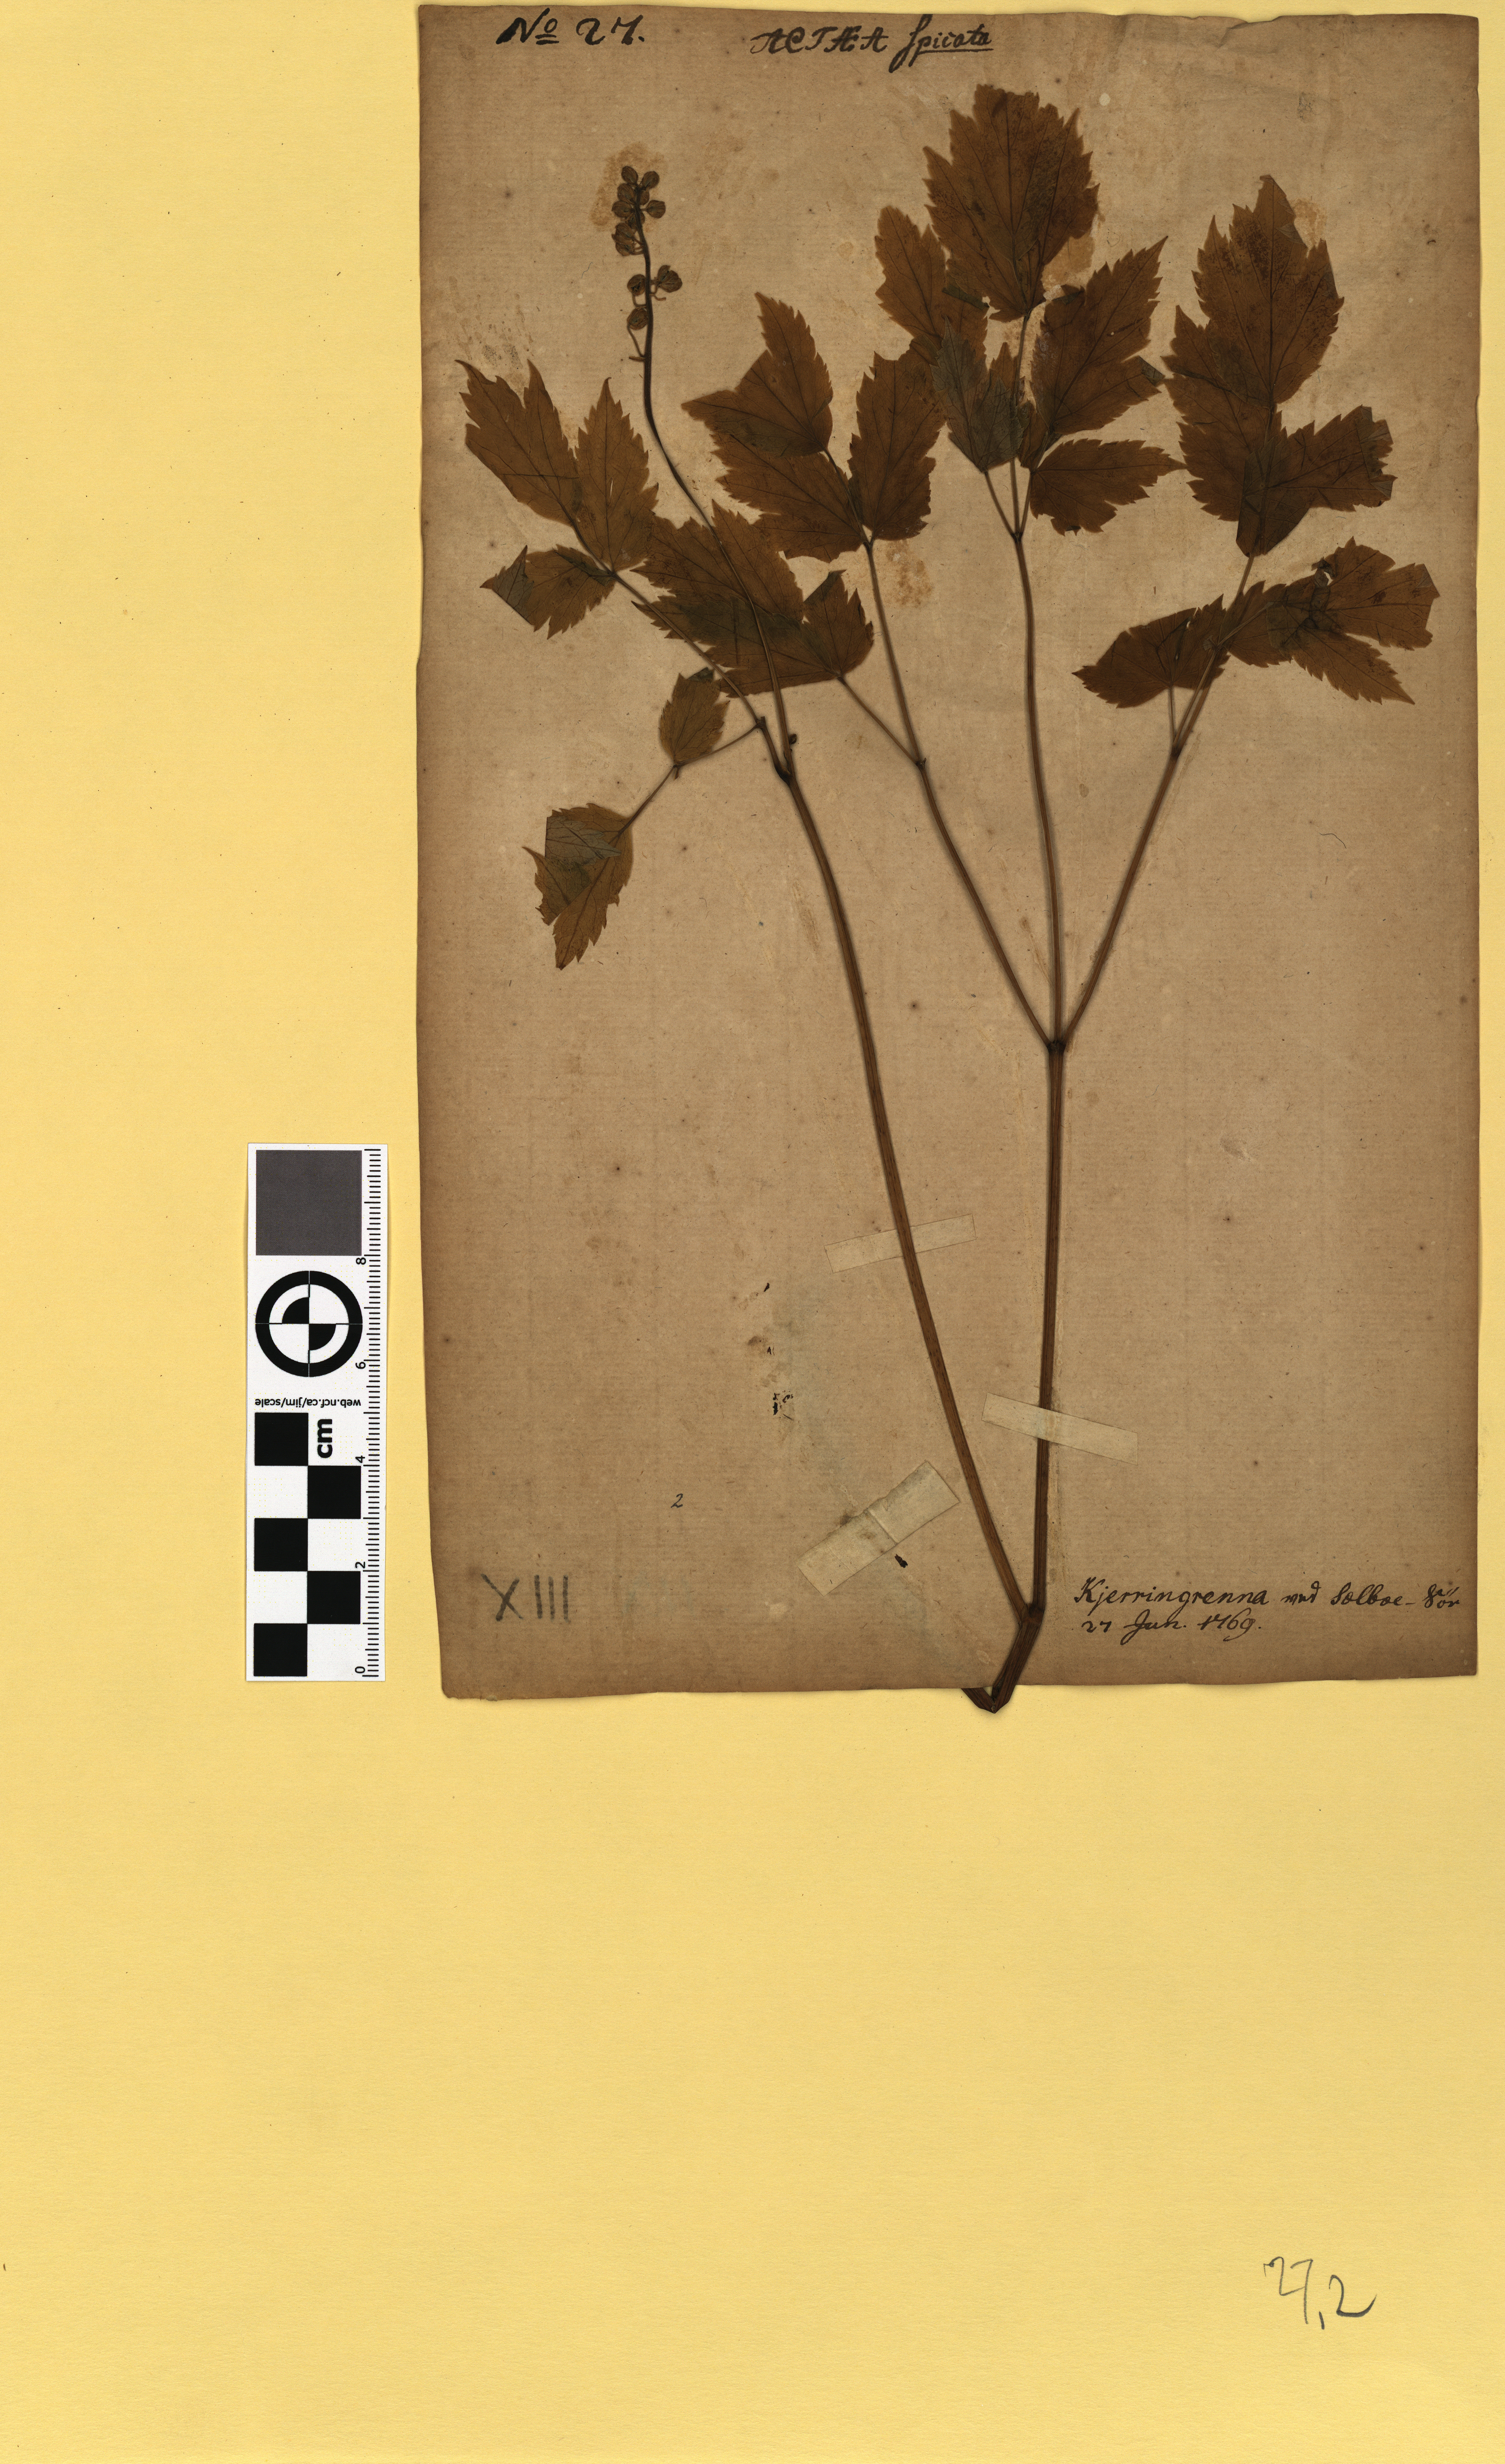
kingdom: Plantae
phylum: Tracheophyta
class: Magnoliopsida
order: Ranunculales
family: Ranunculaceae
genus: Actaea
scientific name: Actaea spicata
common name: Baneberry
